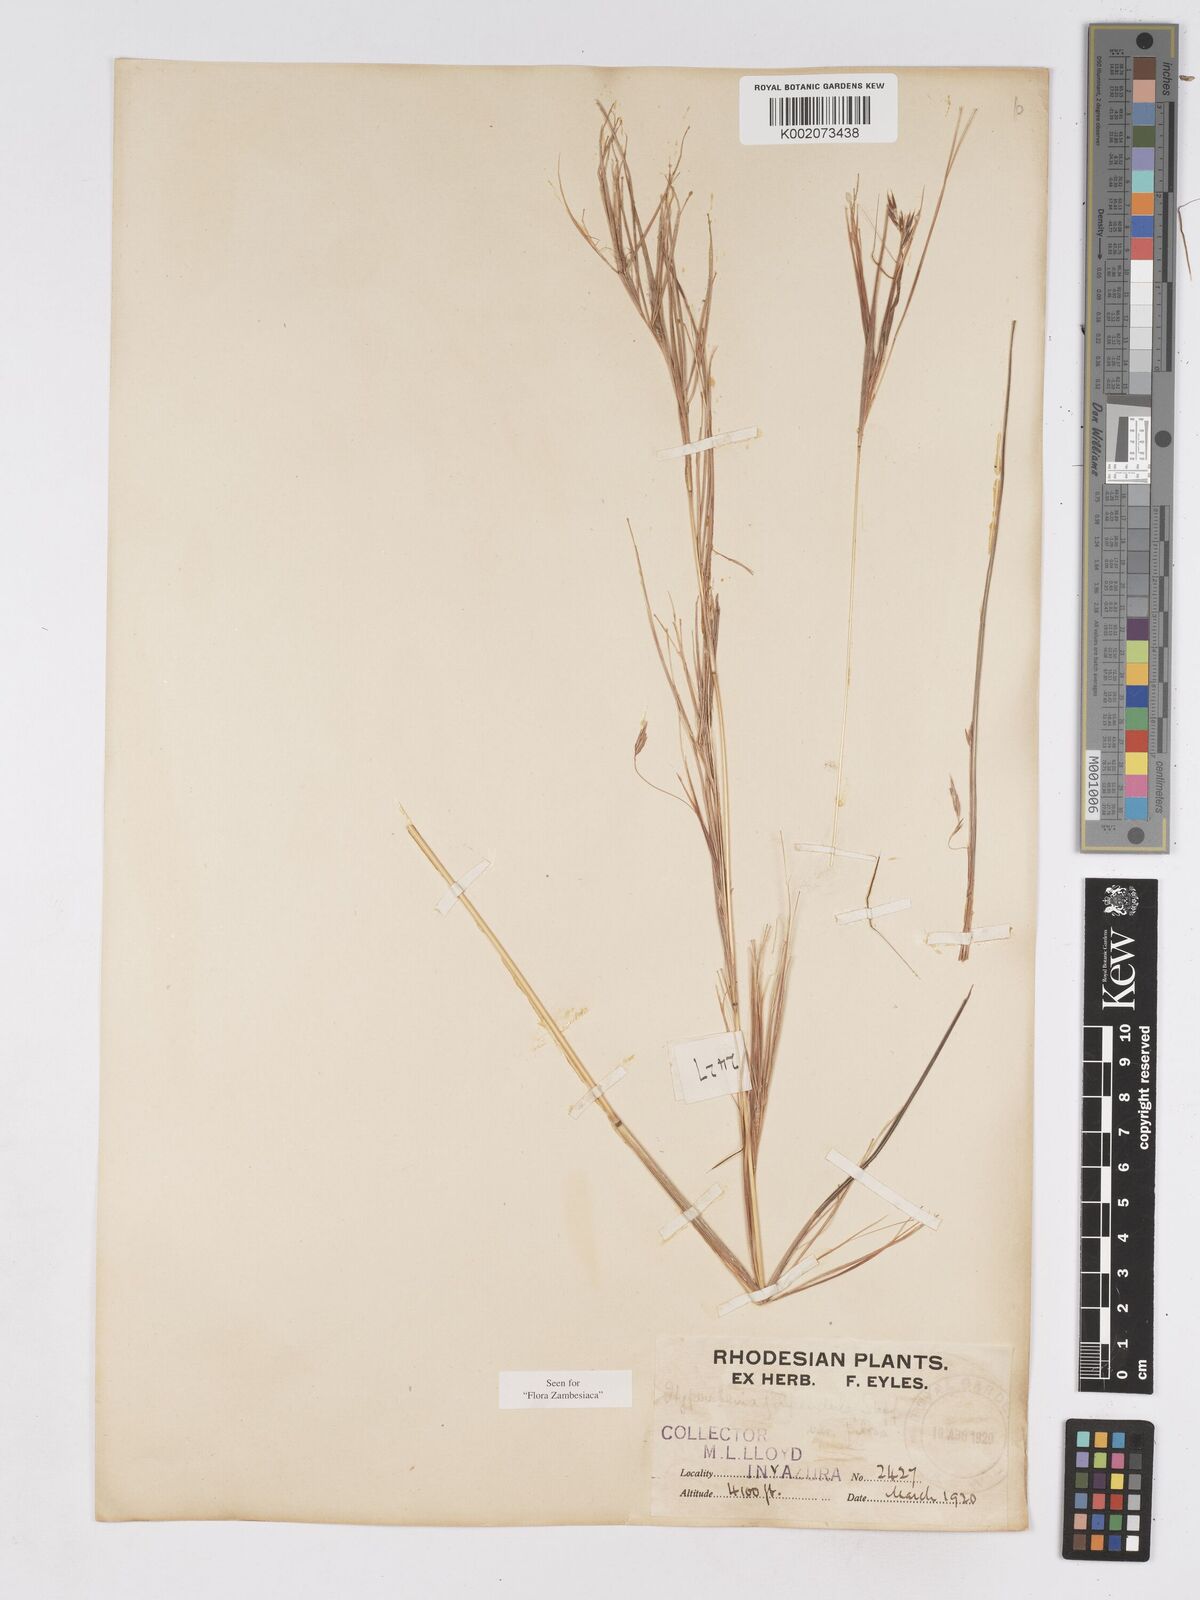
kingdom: Plantae
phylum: Tracheophyta
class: Liliopsida
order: Poales
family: Poaceae
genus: Hyparrhenia
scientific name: Hyparrhenia filipendula
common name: Tambookie grass
